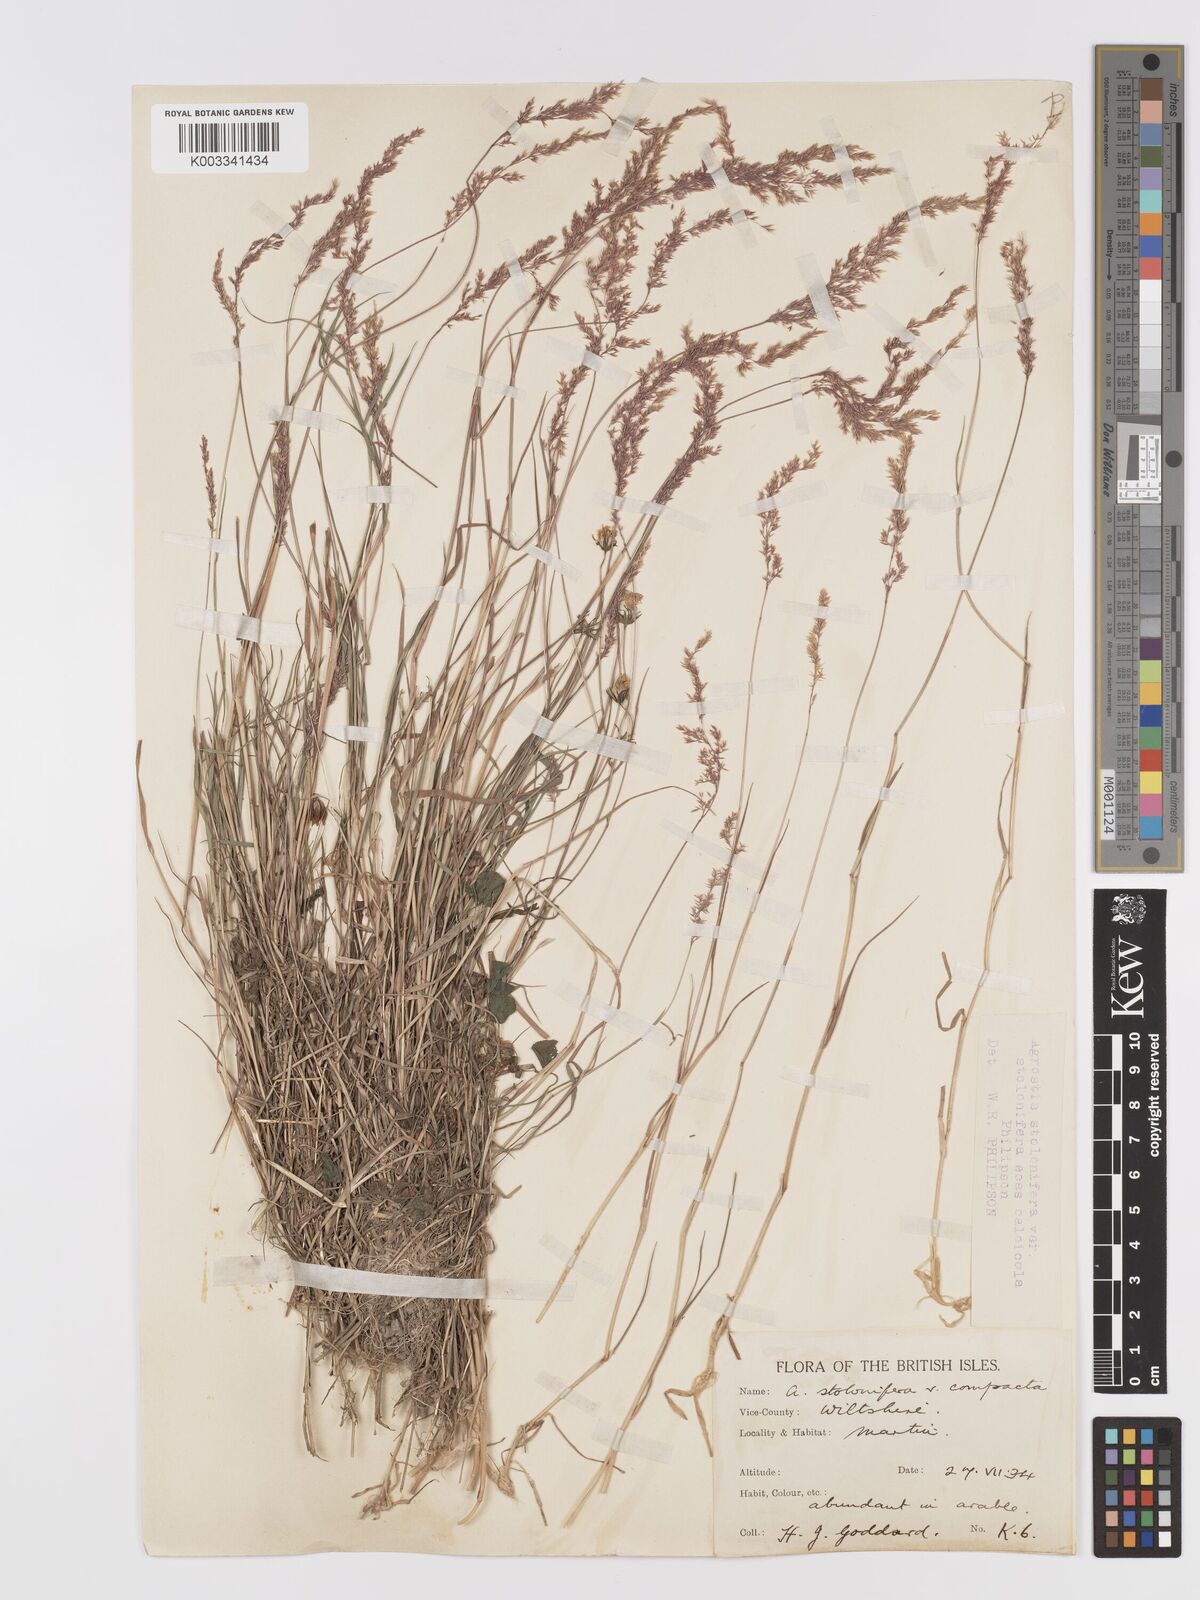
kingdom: Plantae
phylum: Tracheophyta
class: Liliopsida
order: Poales
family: Poaceae
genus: Agrostis
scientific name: Agrostis stolonifera
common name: Creeping bentgrass
